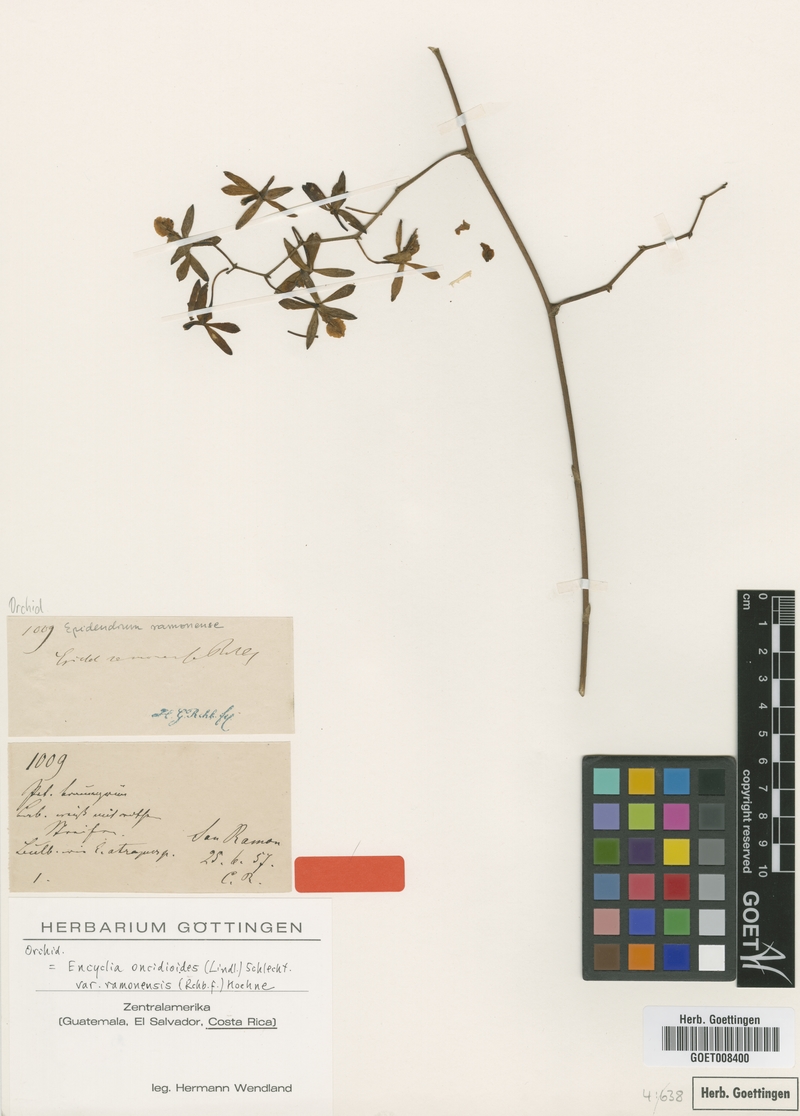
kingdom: Plantae
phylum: Tracheophyta
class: Liliopsida
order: Asparagales
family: Orchidaceae
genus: Encyclia
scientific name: Encyclia oncidioides
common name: Heavyfruit butterfly orchid
